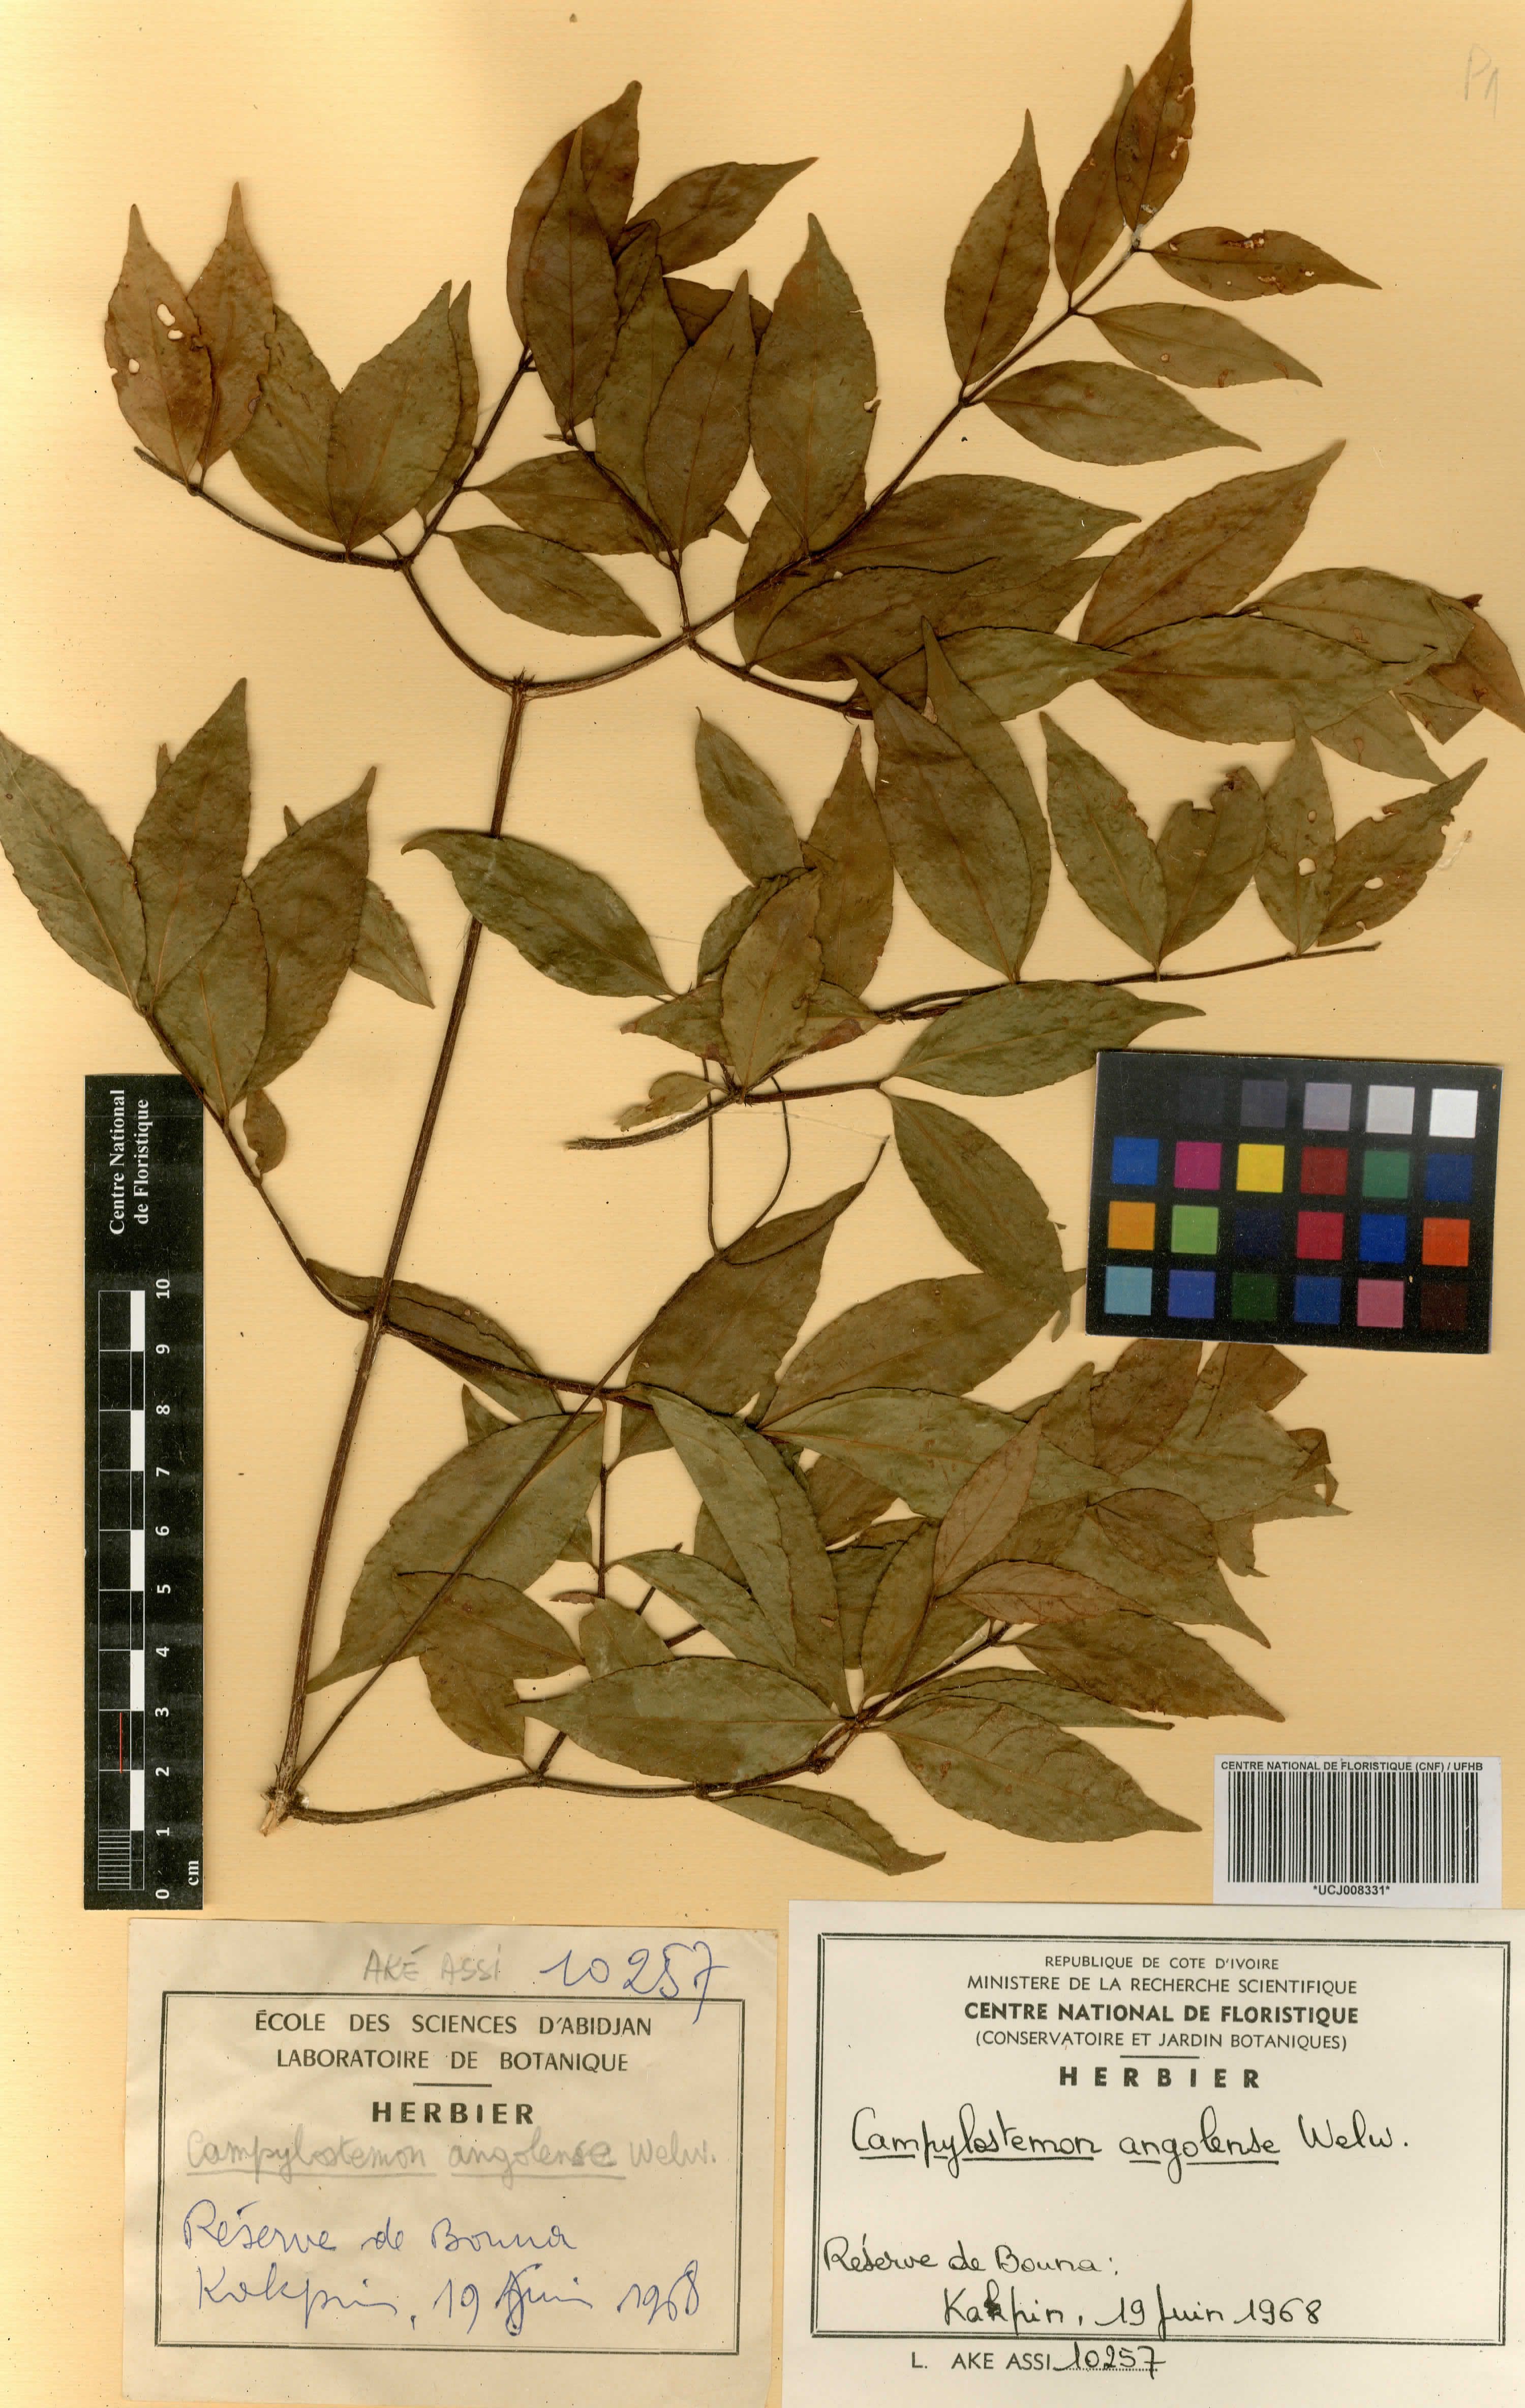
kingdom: Plantae
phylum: Tracheophyta
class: Magnoliopsida
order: Celastrales
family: Celastraceae
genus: Campylostemon
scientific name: Campylostemon angolense
